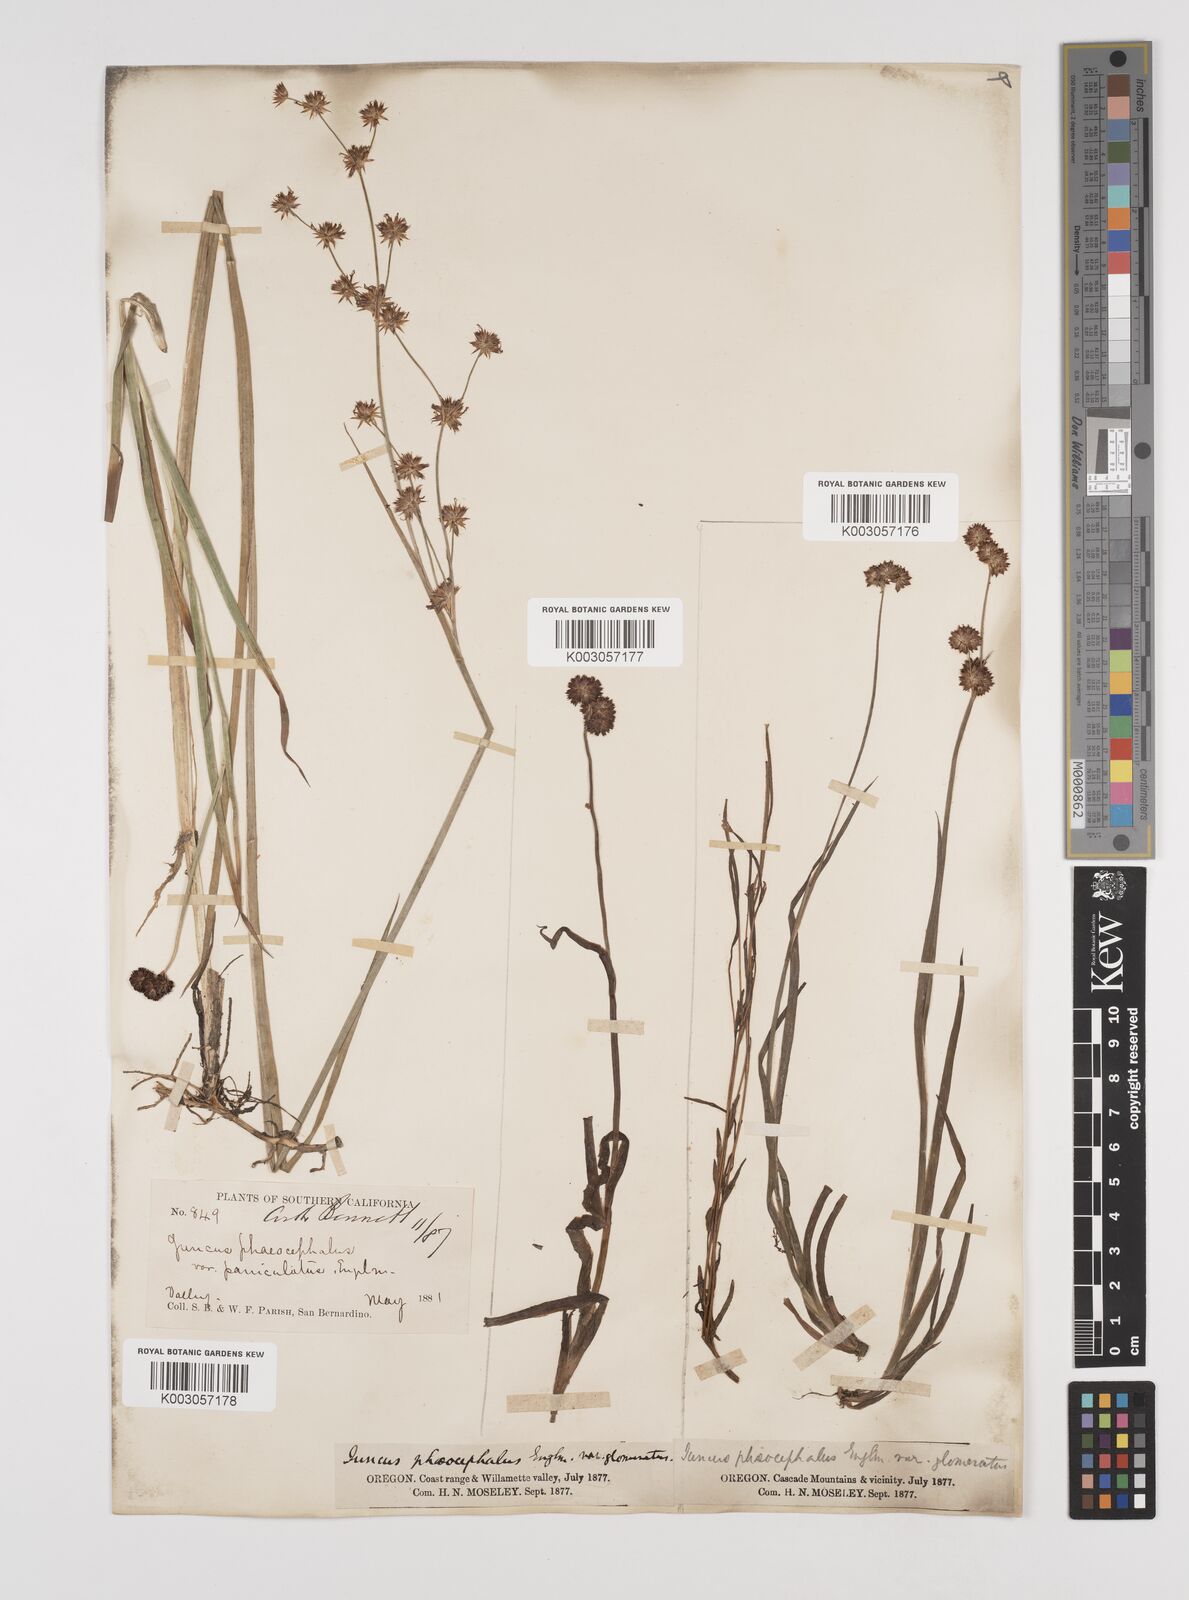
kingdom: Plantae
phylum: Tracheophyta
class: Liliopsida
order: Poales
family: Juncaceae
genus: Juncus
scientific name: Juncus phaeocephalus
